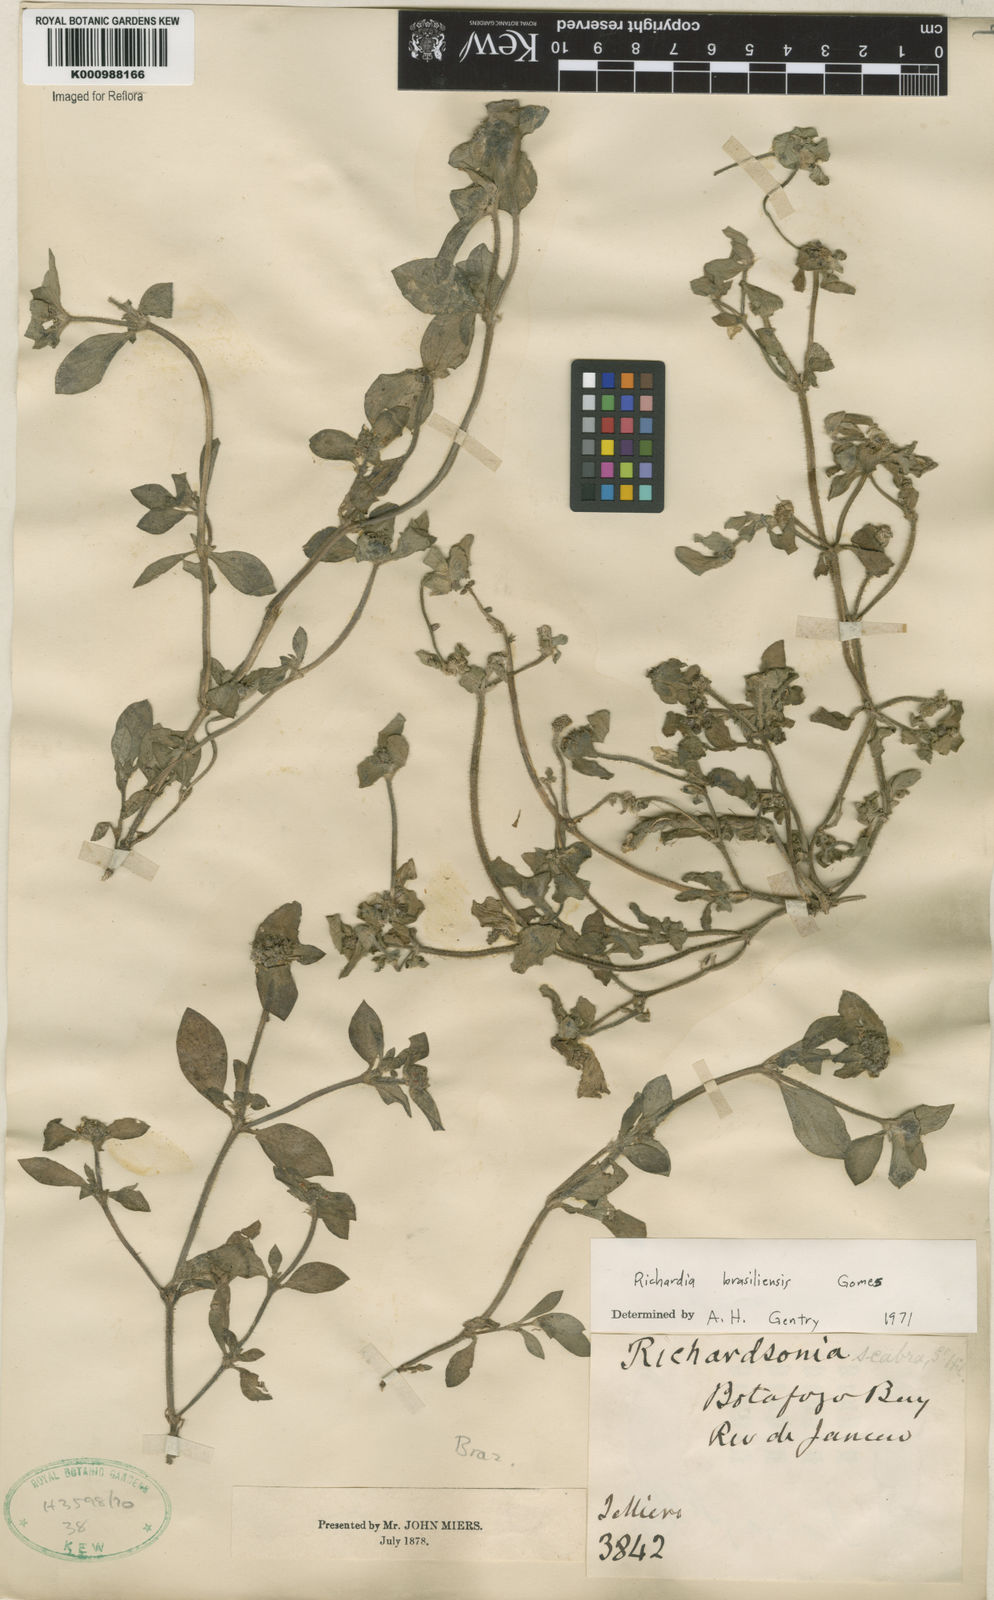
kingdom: Plantae
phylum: Tracheophyta
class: Magnoliopsida
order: Gentianales
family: Rubiaceae
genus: Richardia
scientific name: Richardia brasiliensis
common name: Tropical mexican clover
